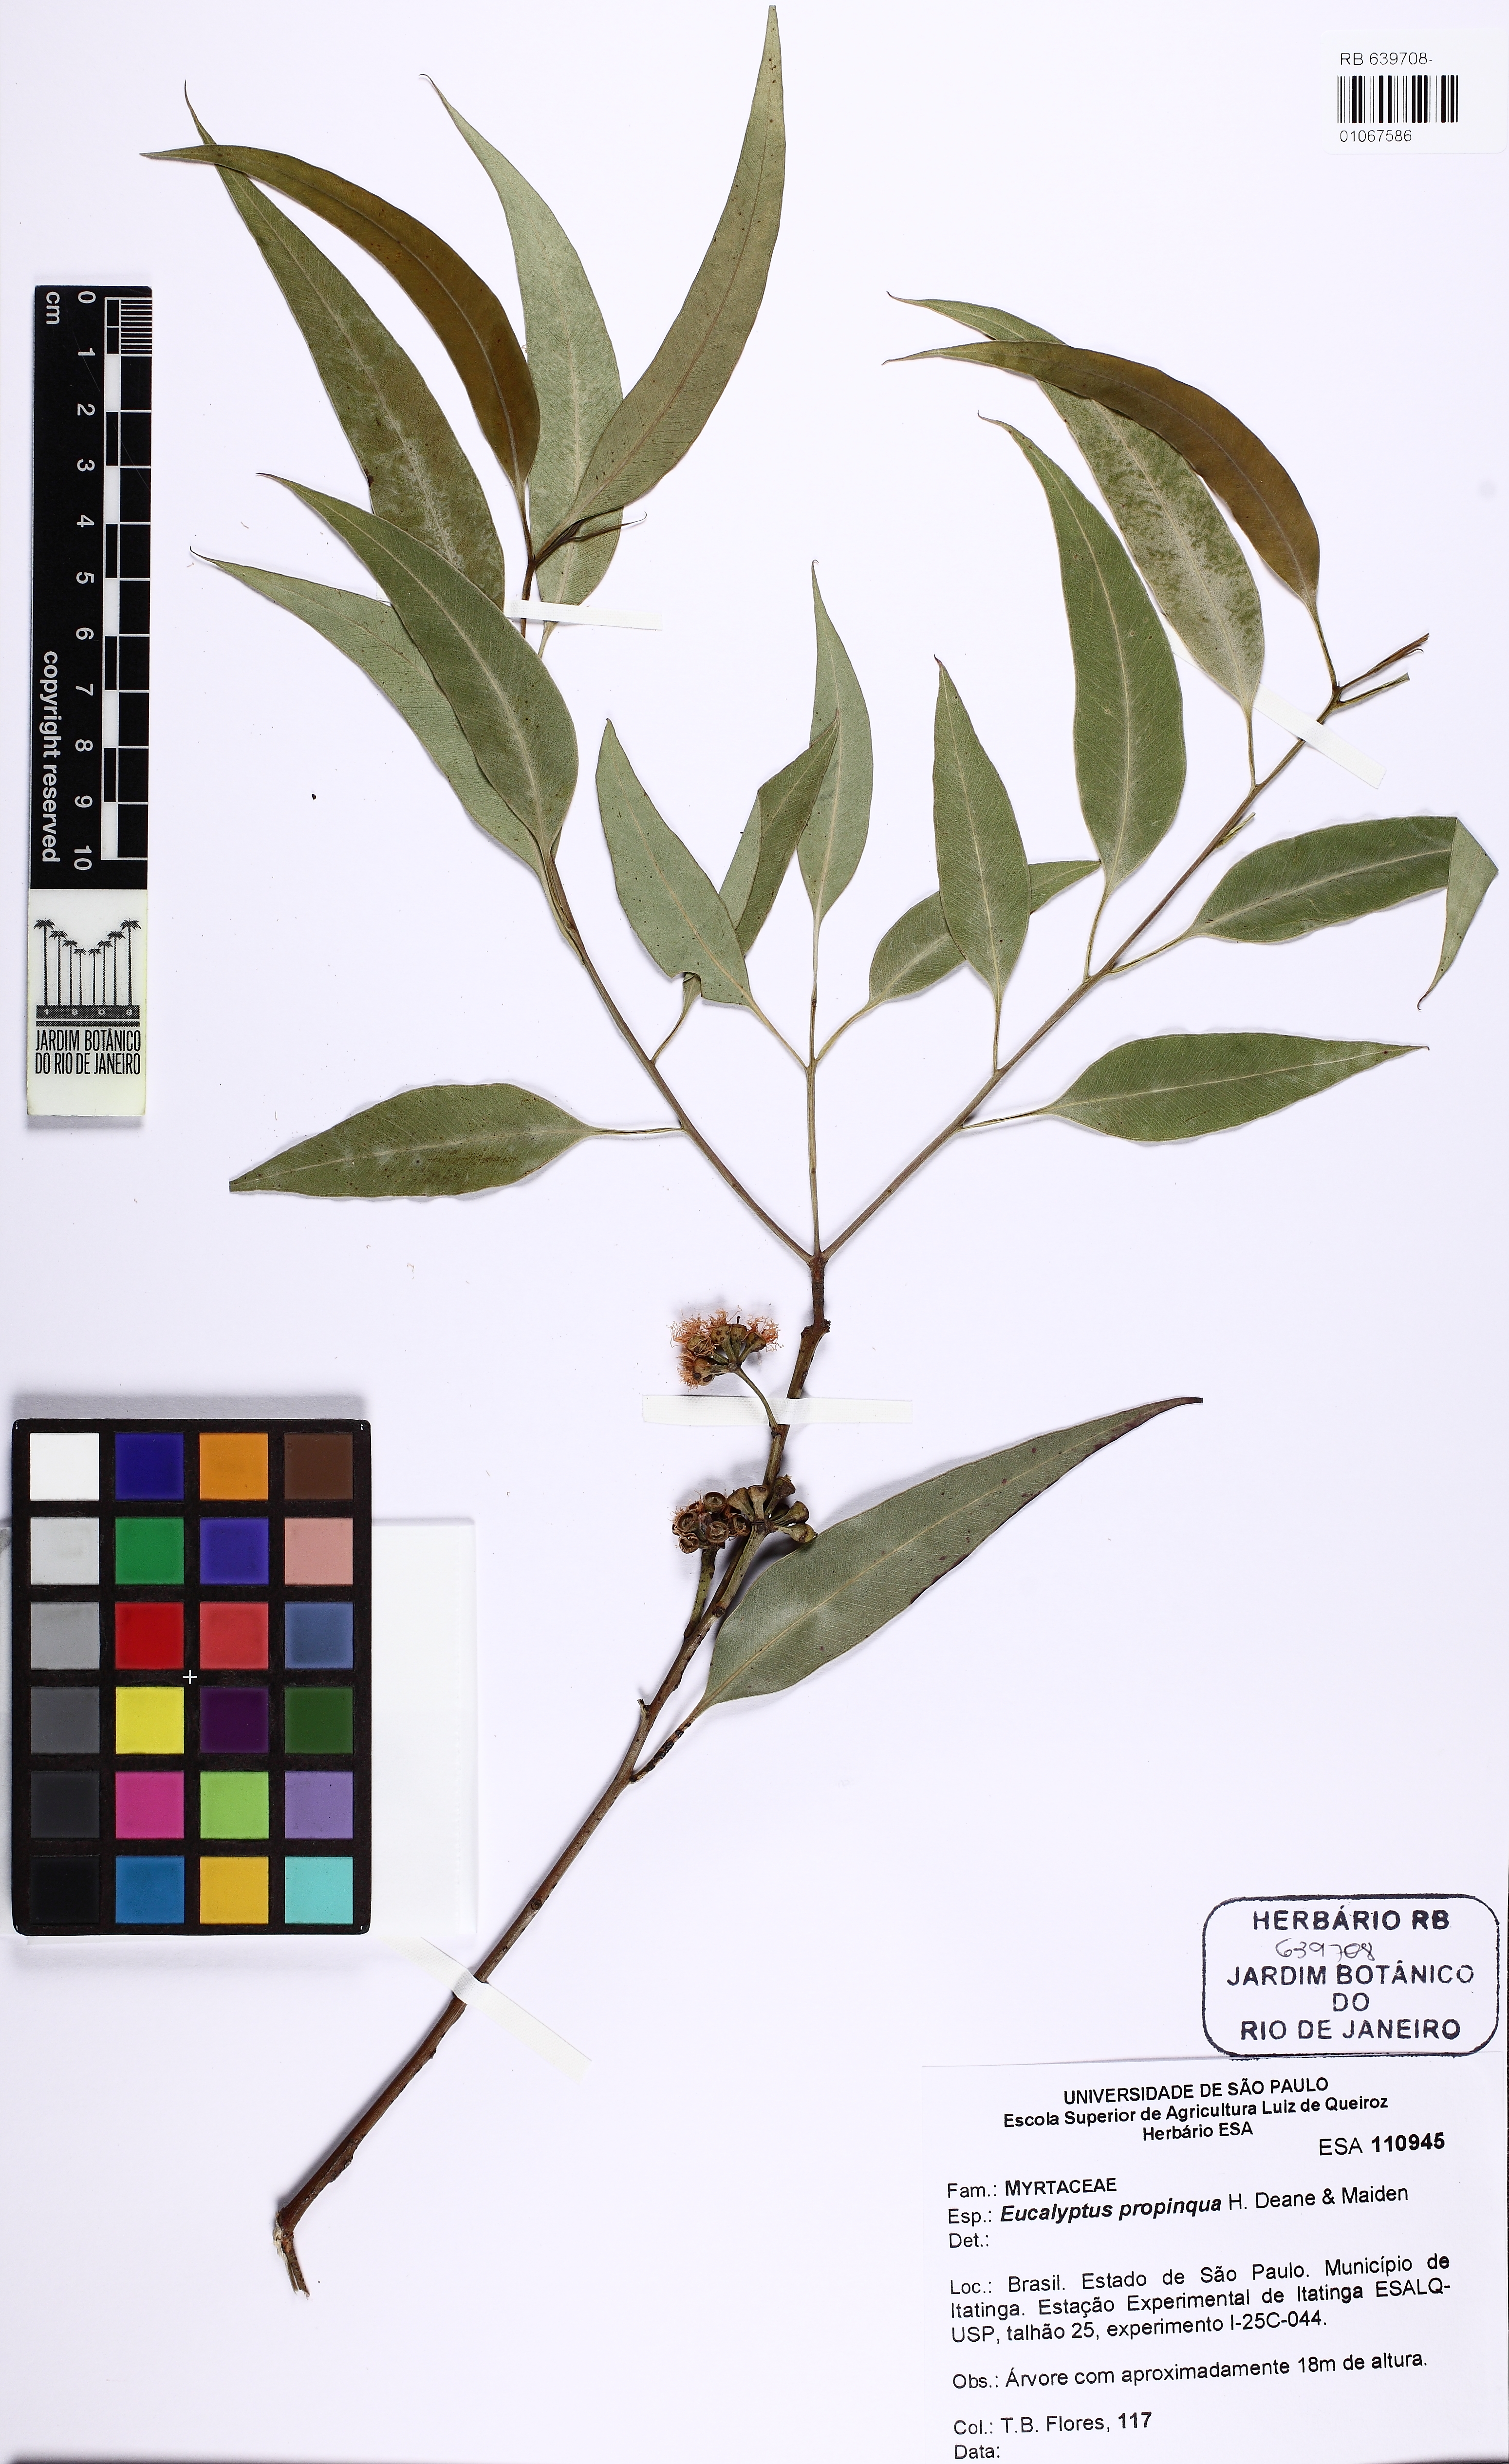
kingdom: Plantae
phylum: Tracheophyta
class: Magnoliopsida
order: Myrtales
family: Myrtaceae
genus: Eucalyptus
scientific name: Eucalyptus propinqua
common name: Grey-gum
